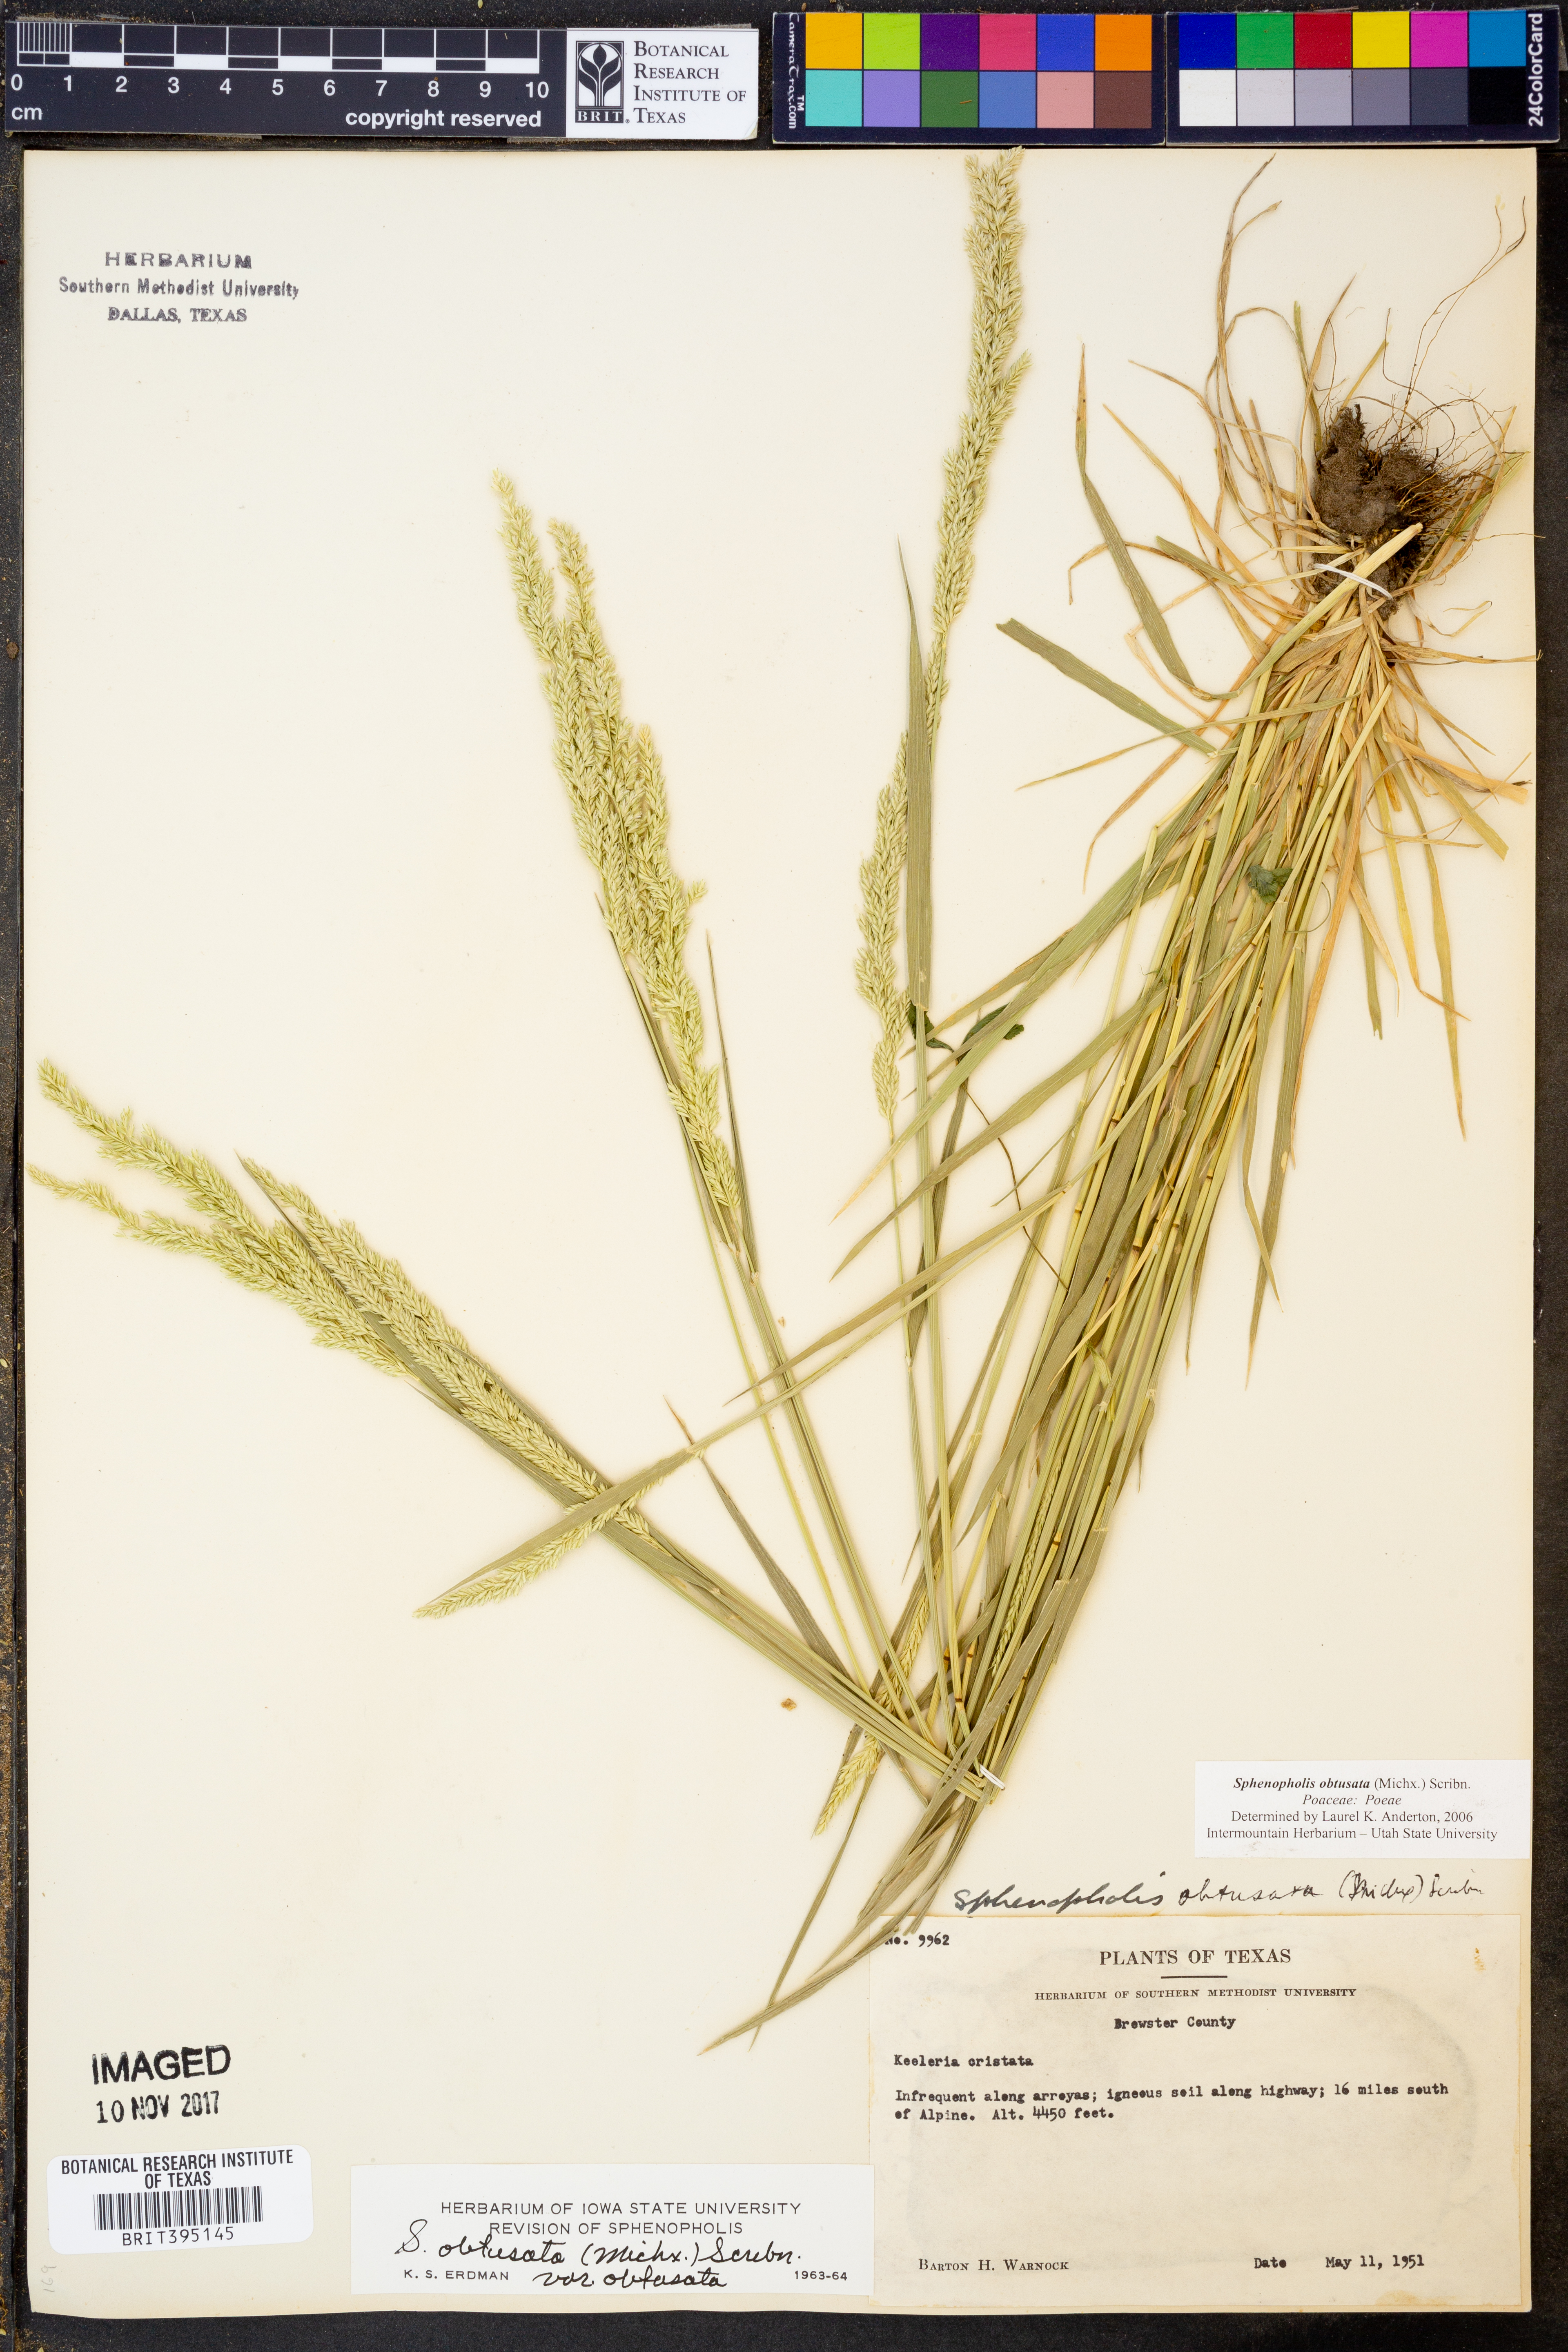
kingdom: Plantae
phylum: Tracheophyta
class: Liliopsida
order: Poales
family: Poaceae
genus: Sphenopholis
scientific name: Sphenopholis obtusata
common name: Prairie grass
